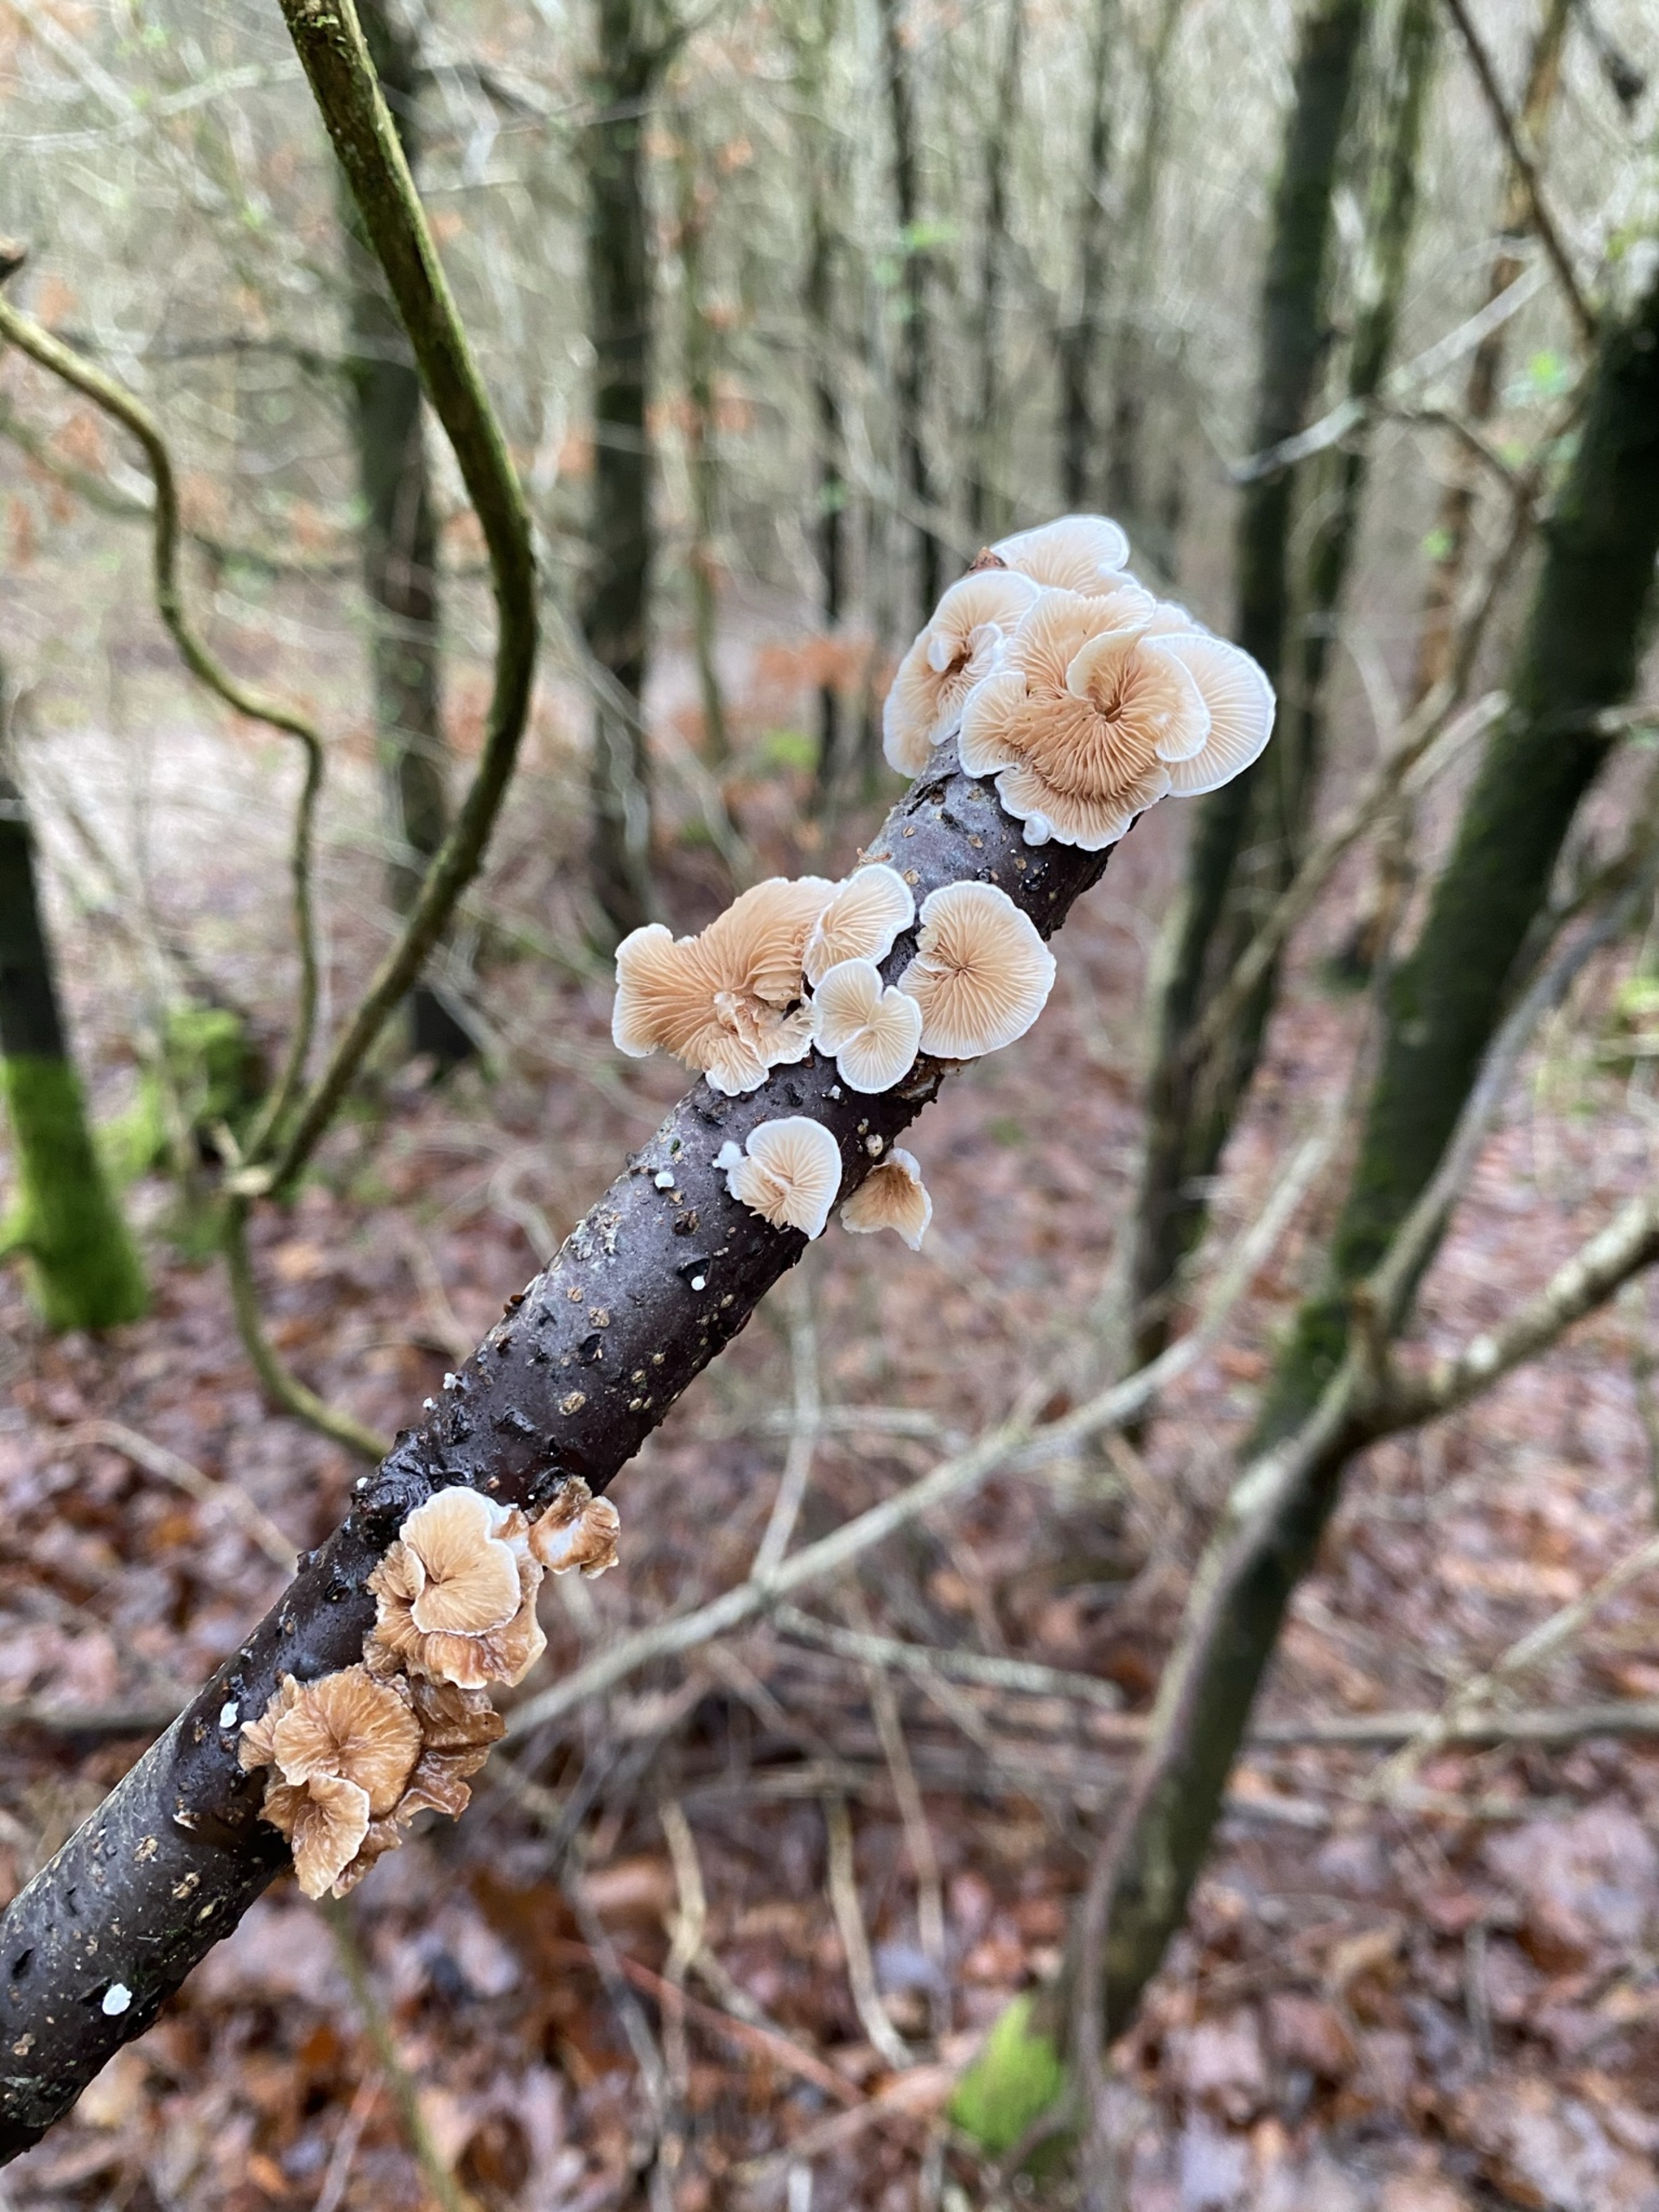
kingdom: Fungi
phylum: Basidiomycota
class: Agaricomycetes
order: Agaricales
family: Crepidotaceae
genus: Crepidotus
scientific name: Crepidotus
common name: Muslingesvamp
